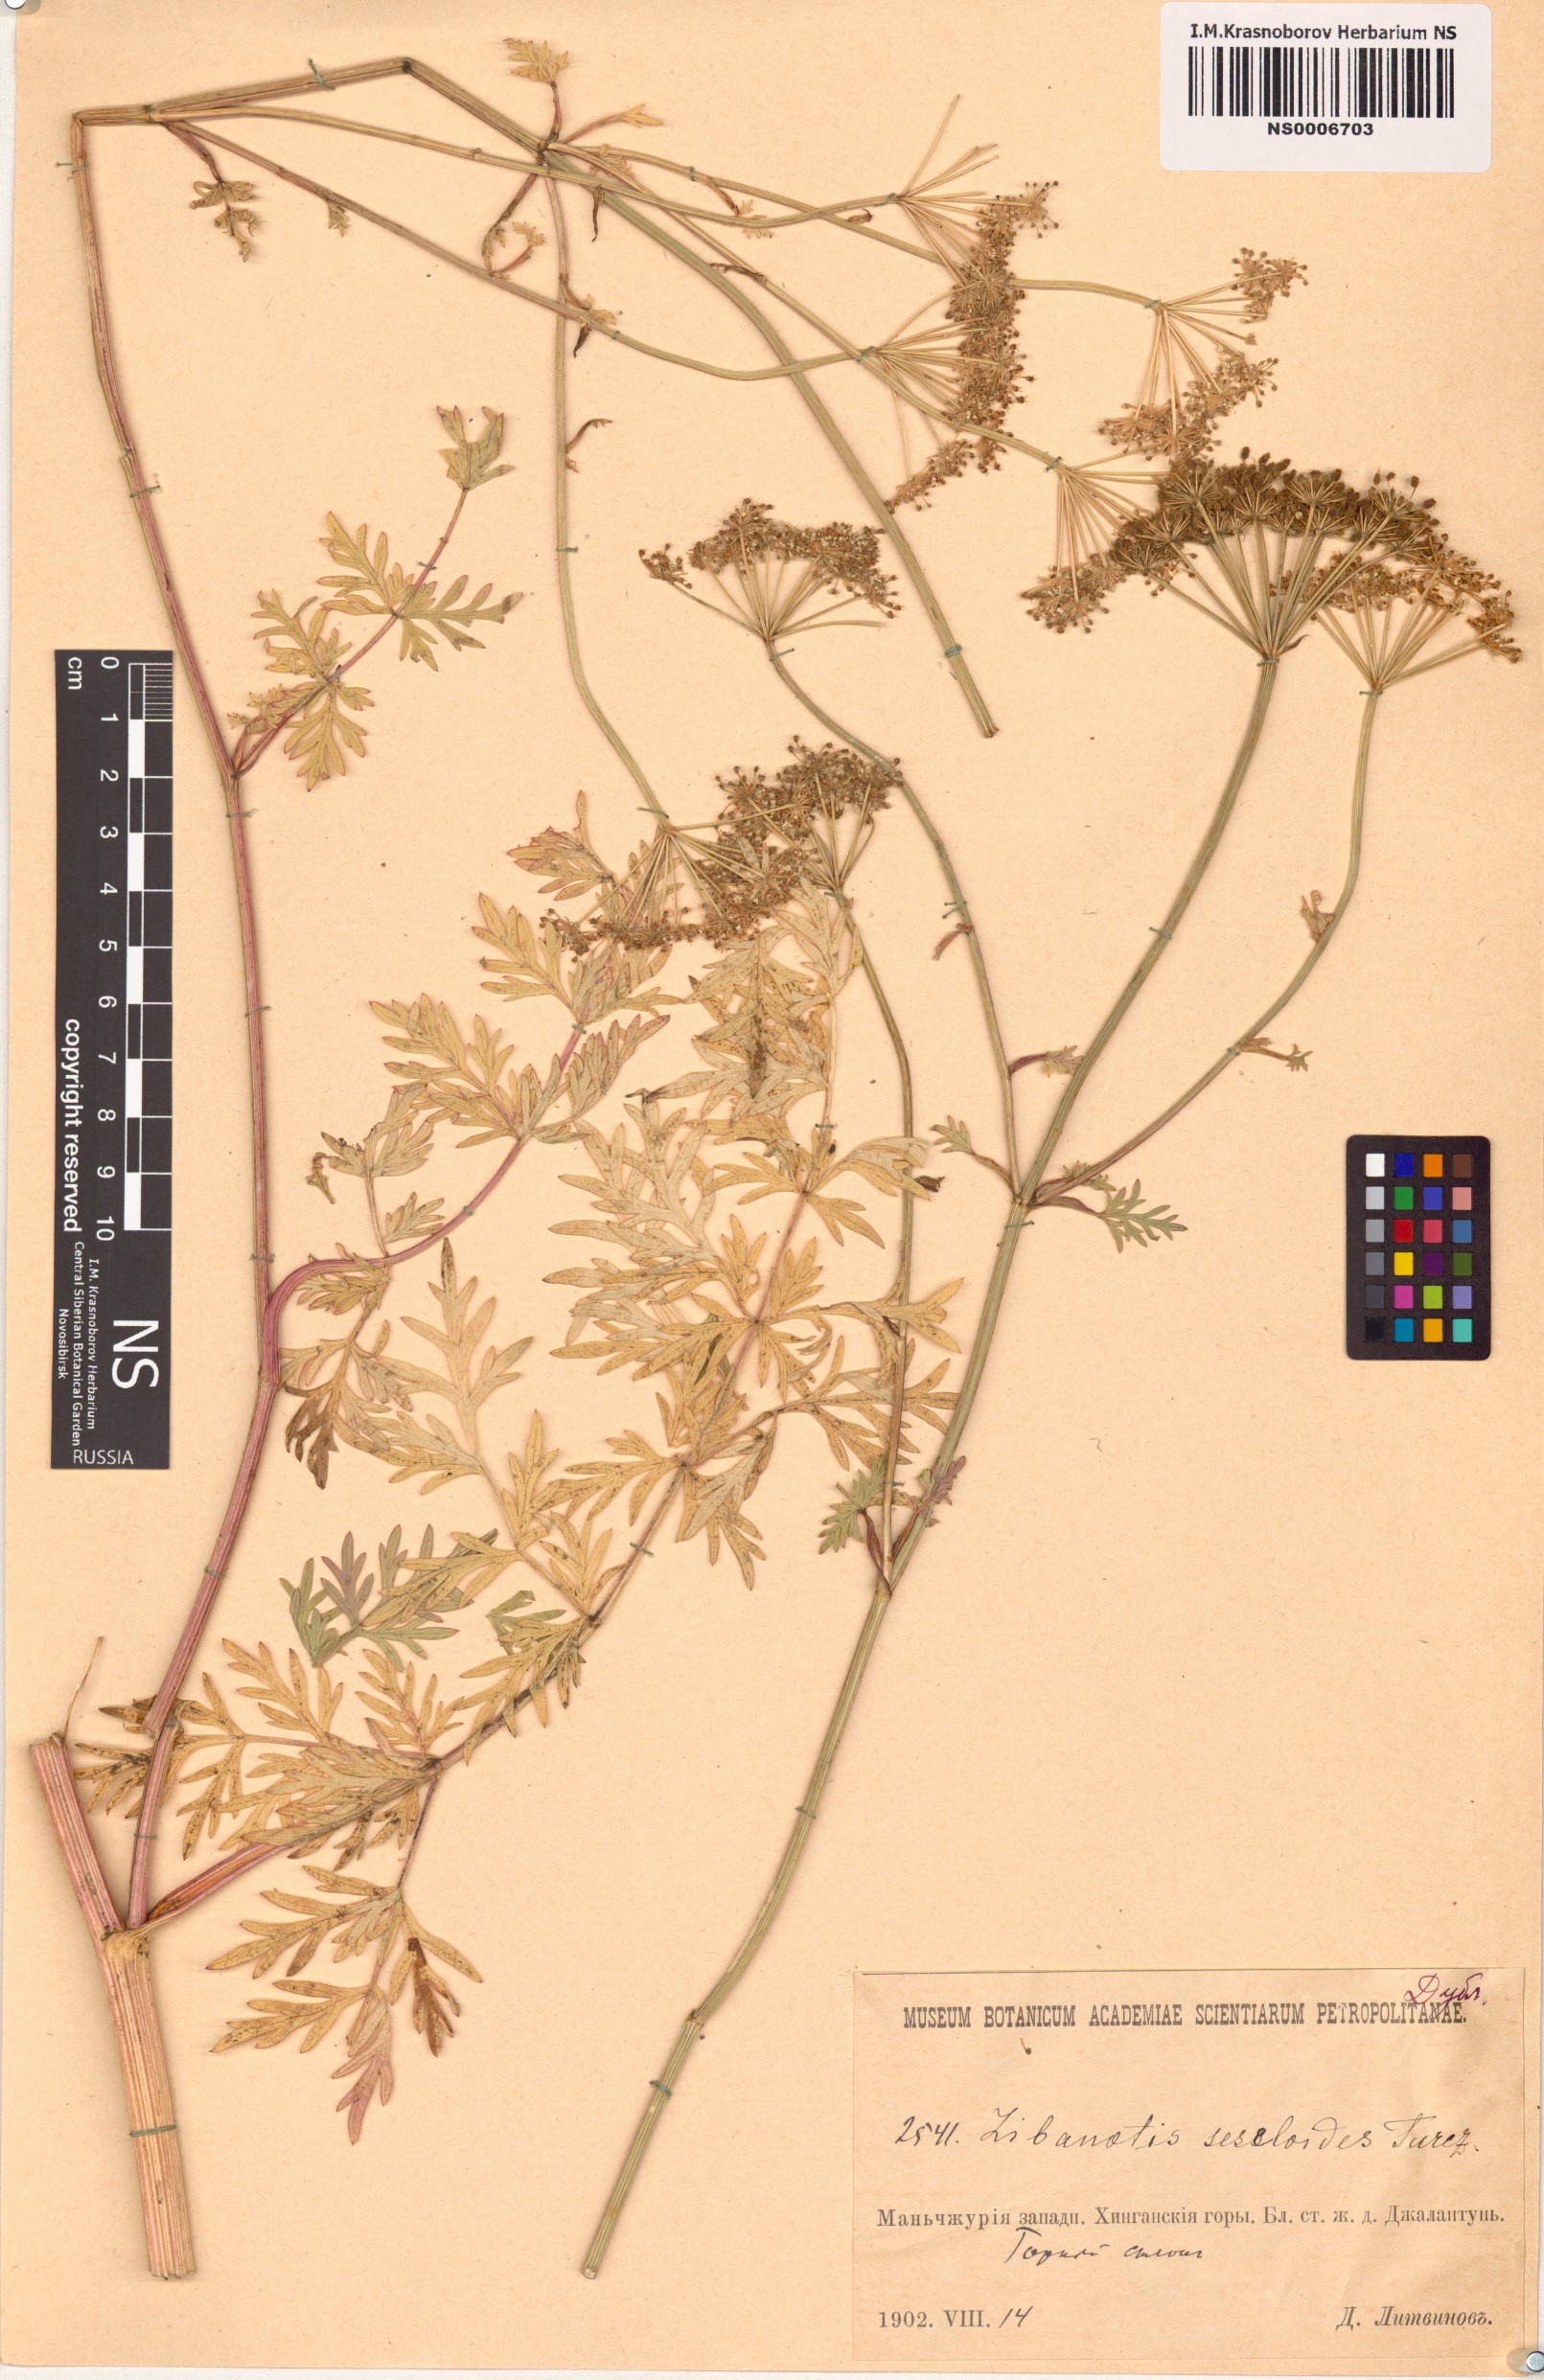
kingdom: Plantae
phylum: Tracheophyta
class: Magnoliopsida
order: Apiales
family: Apiaceae
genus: Seseli
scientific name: Seseli seseloides
